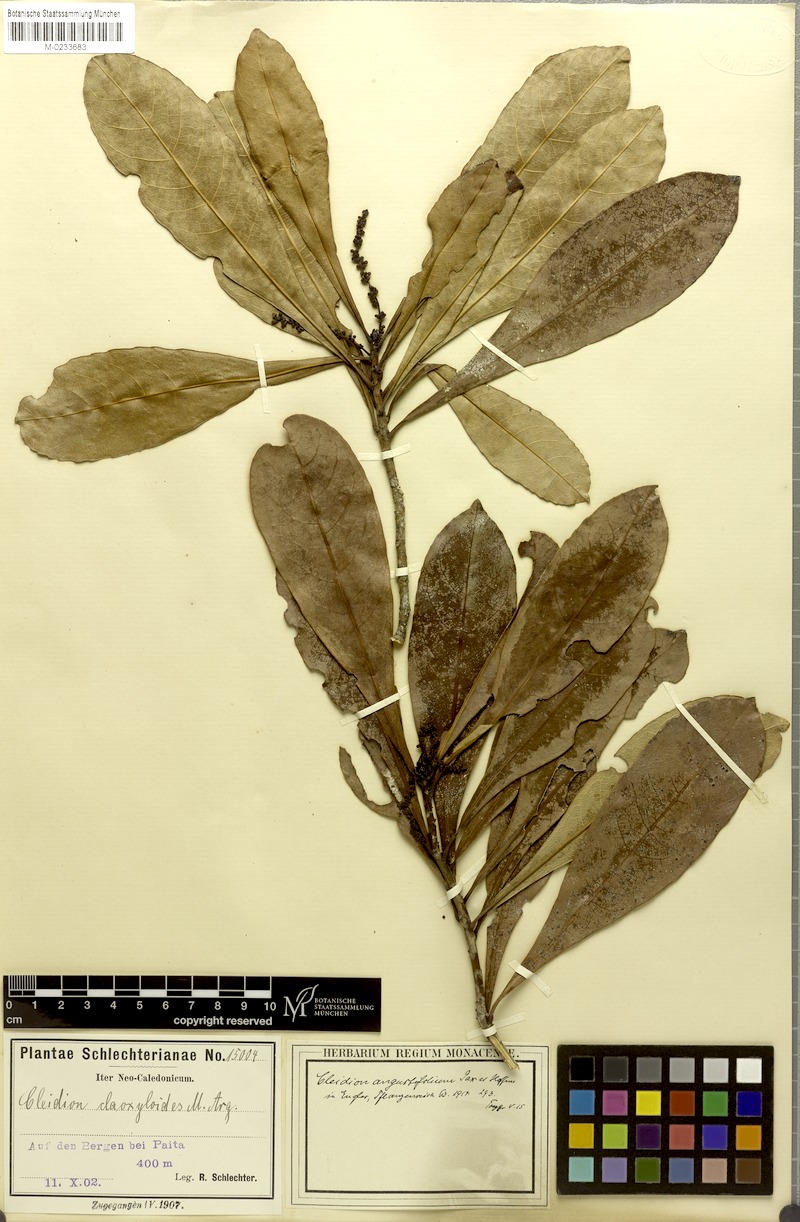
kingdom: Plantae
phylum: Tracheophyta
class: Magnoliopsida
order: Malpighiales
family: Euphorbiaceae
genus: Cleidion
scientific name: Cleidion vieillardii
